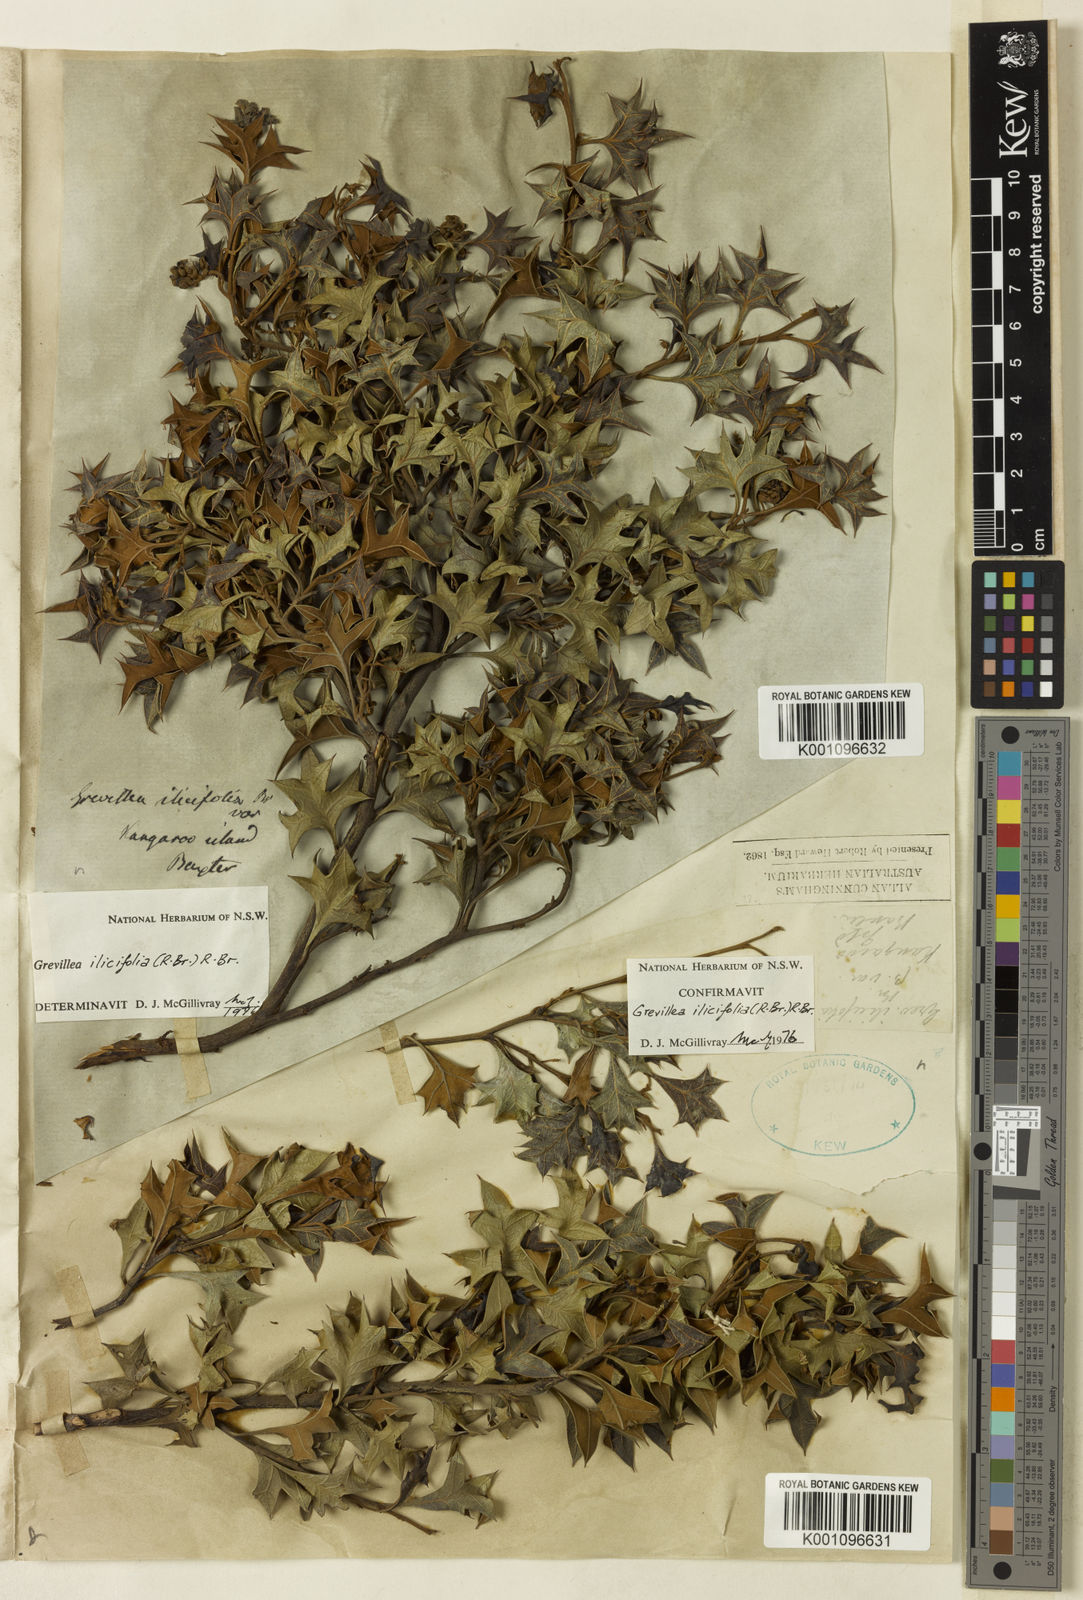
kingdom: Plantae
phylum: Tracheophyta
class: Magnoliopsida
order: Proteales
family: Proteaceae
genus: Grevillea
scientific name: Grevillea dilatata
